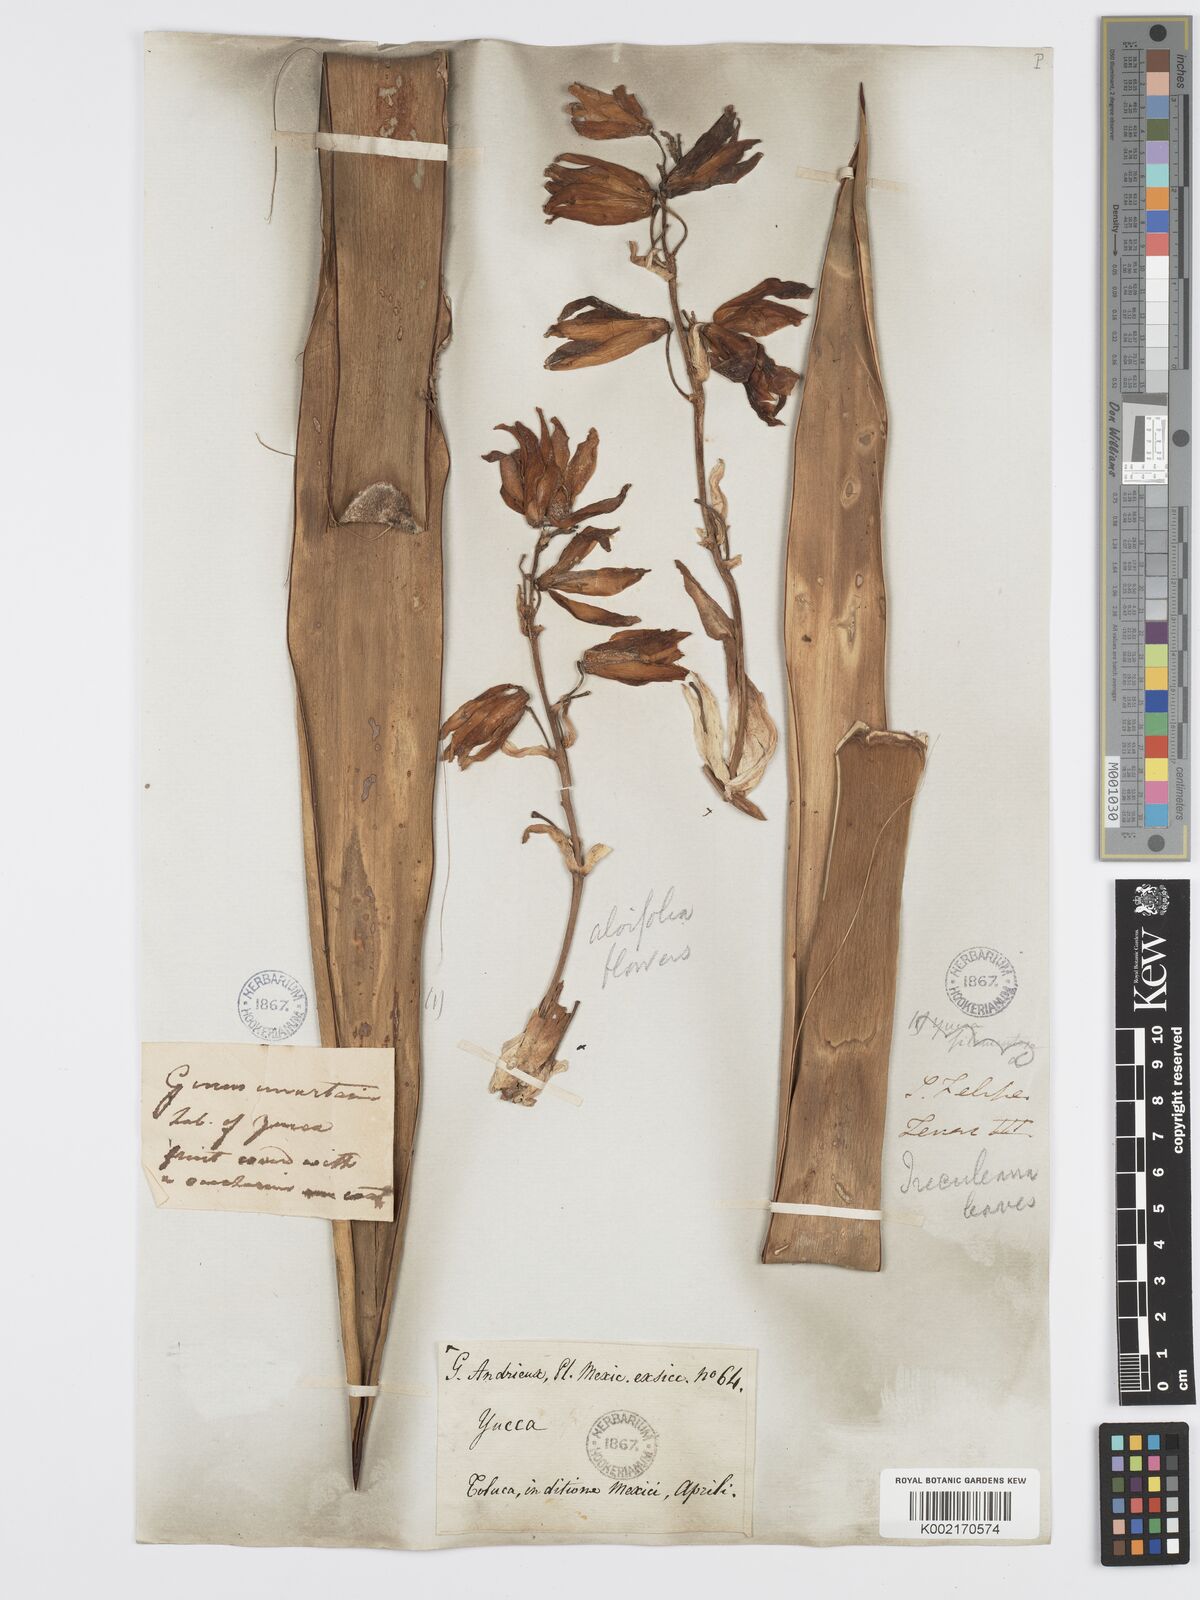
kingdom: Plantae
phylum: Tracheophyta
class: Liliopsida
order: Asparagales
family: Asparagaceae
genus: Yucca
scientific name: Yucca treculeana
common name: Spanish bayonet
